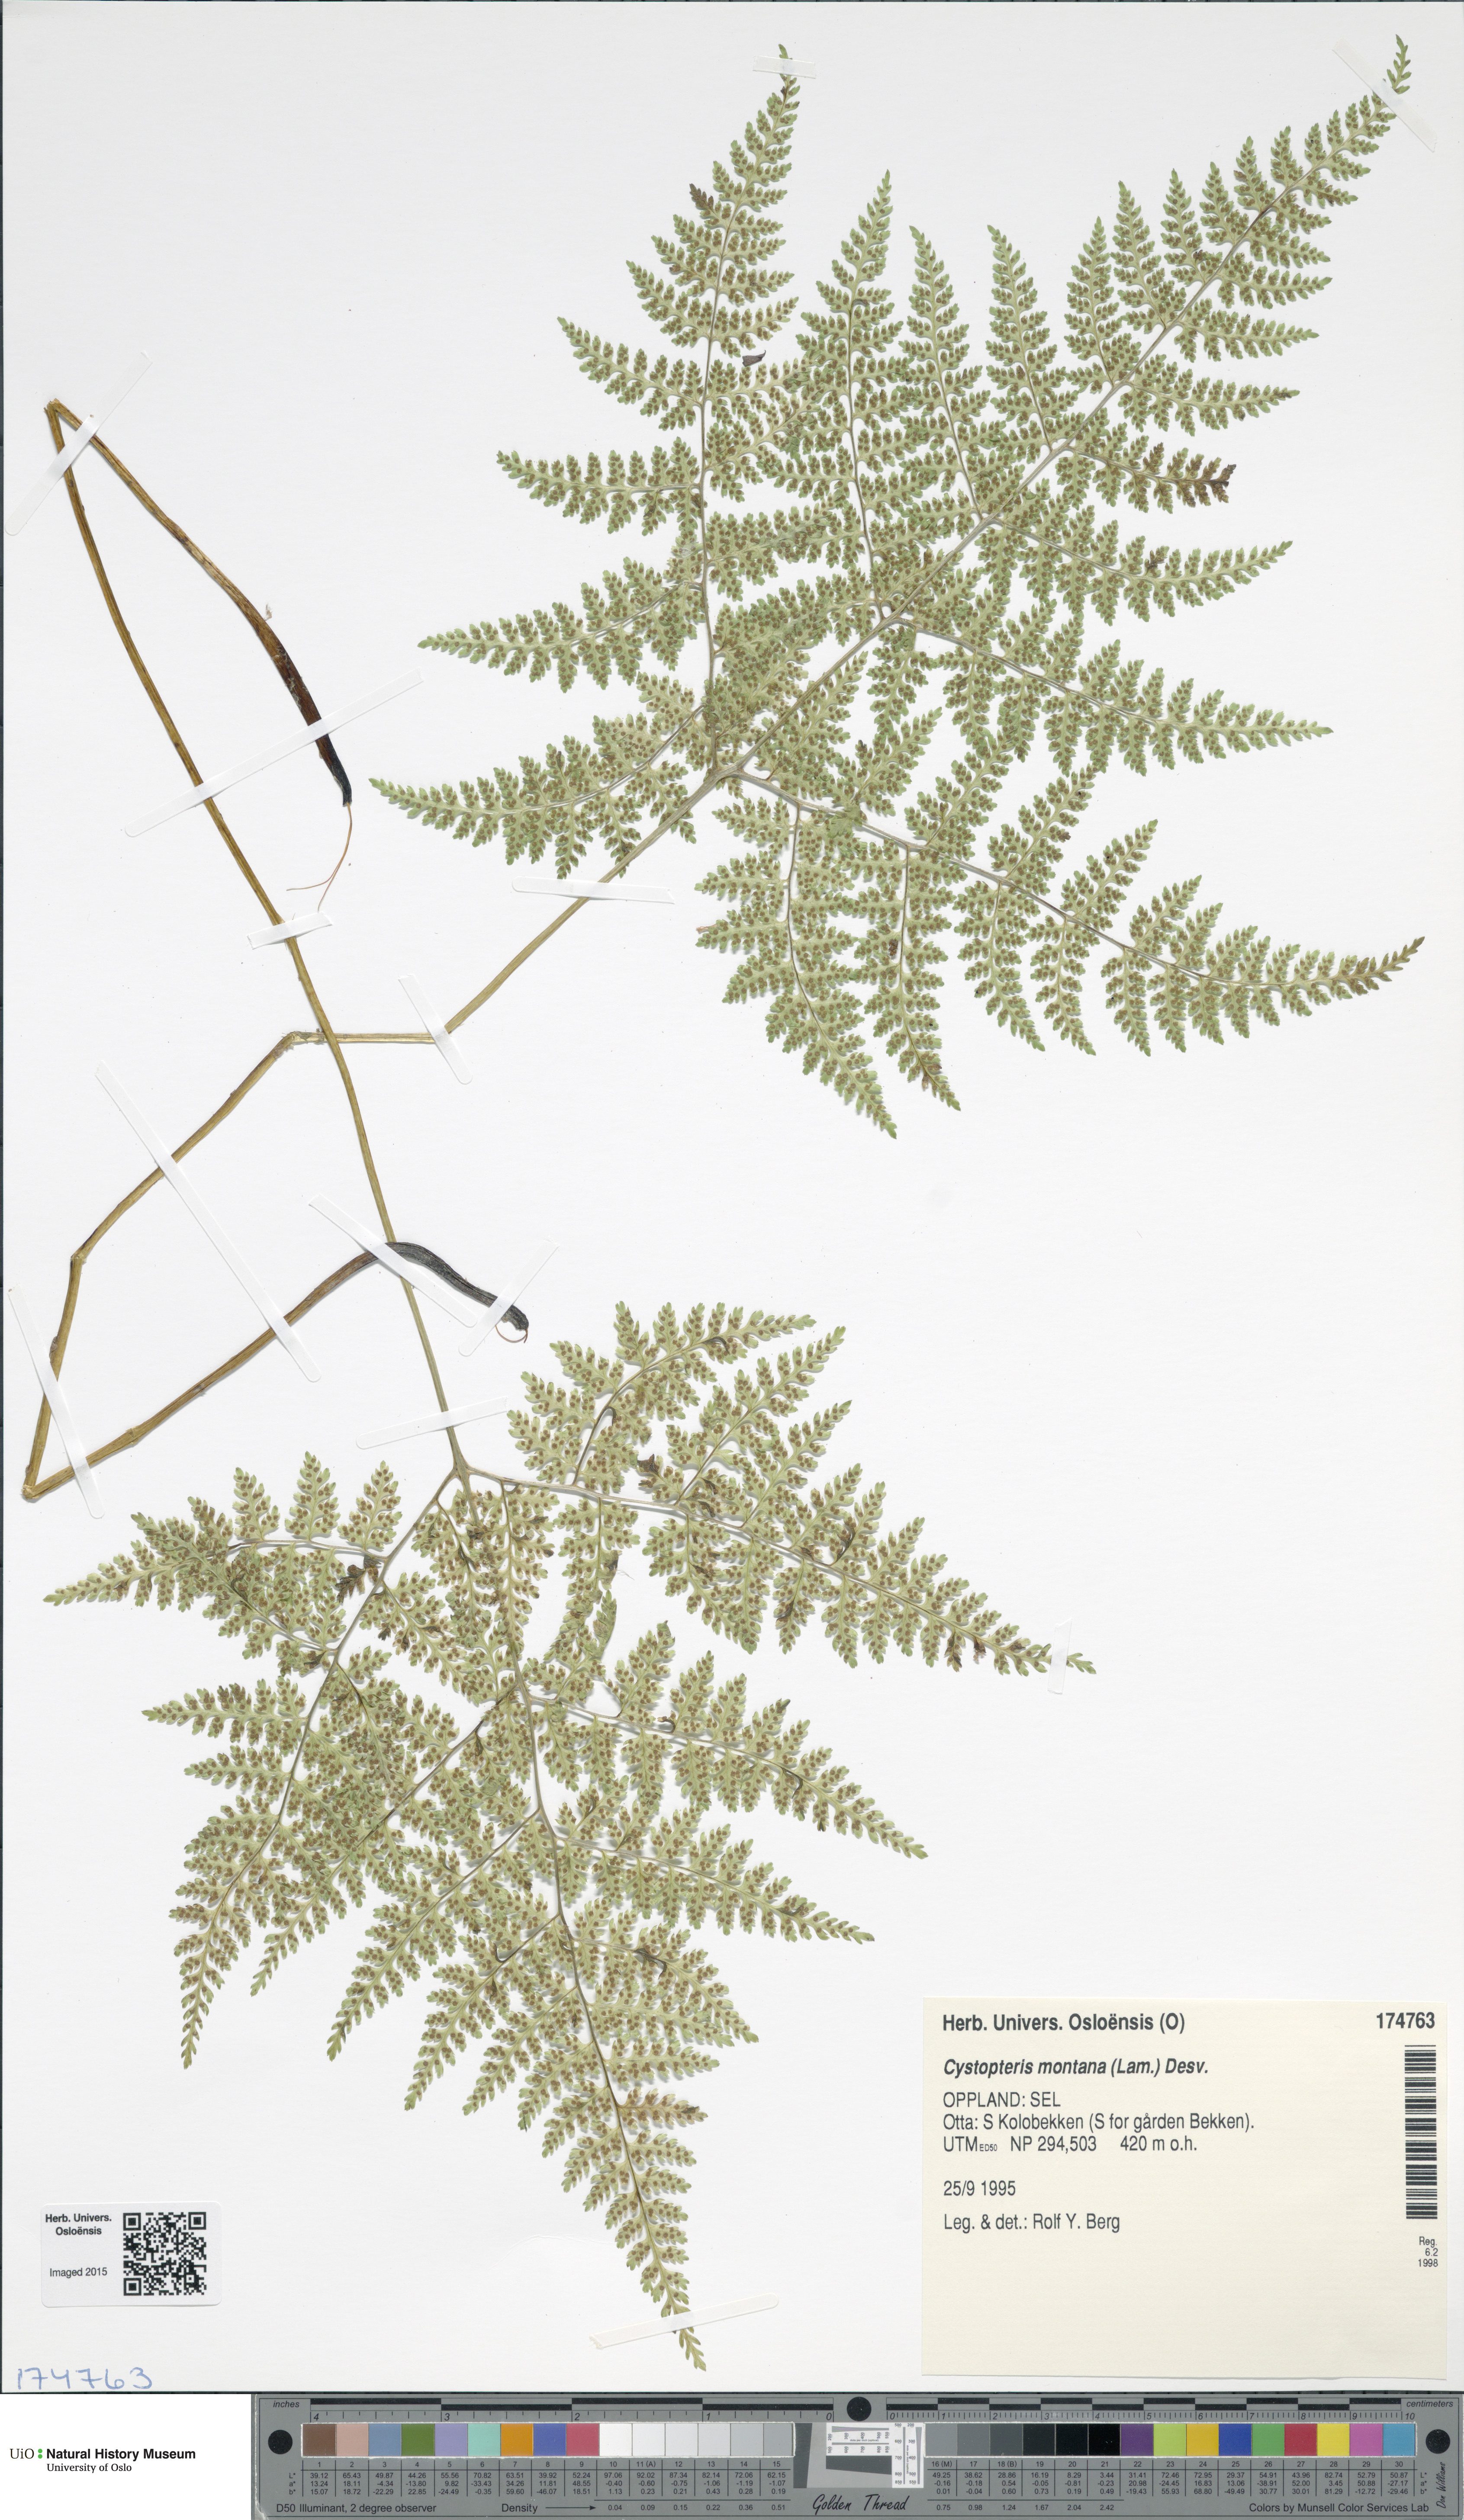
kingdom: Plantae
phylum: Tracheophyta
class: Polypodiopsida
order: Polypodiales
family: Cystopteridaceae
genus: Cystopteris
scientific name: Cystopteris montana
